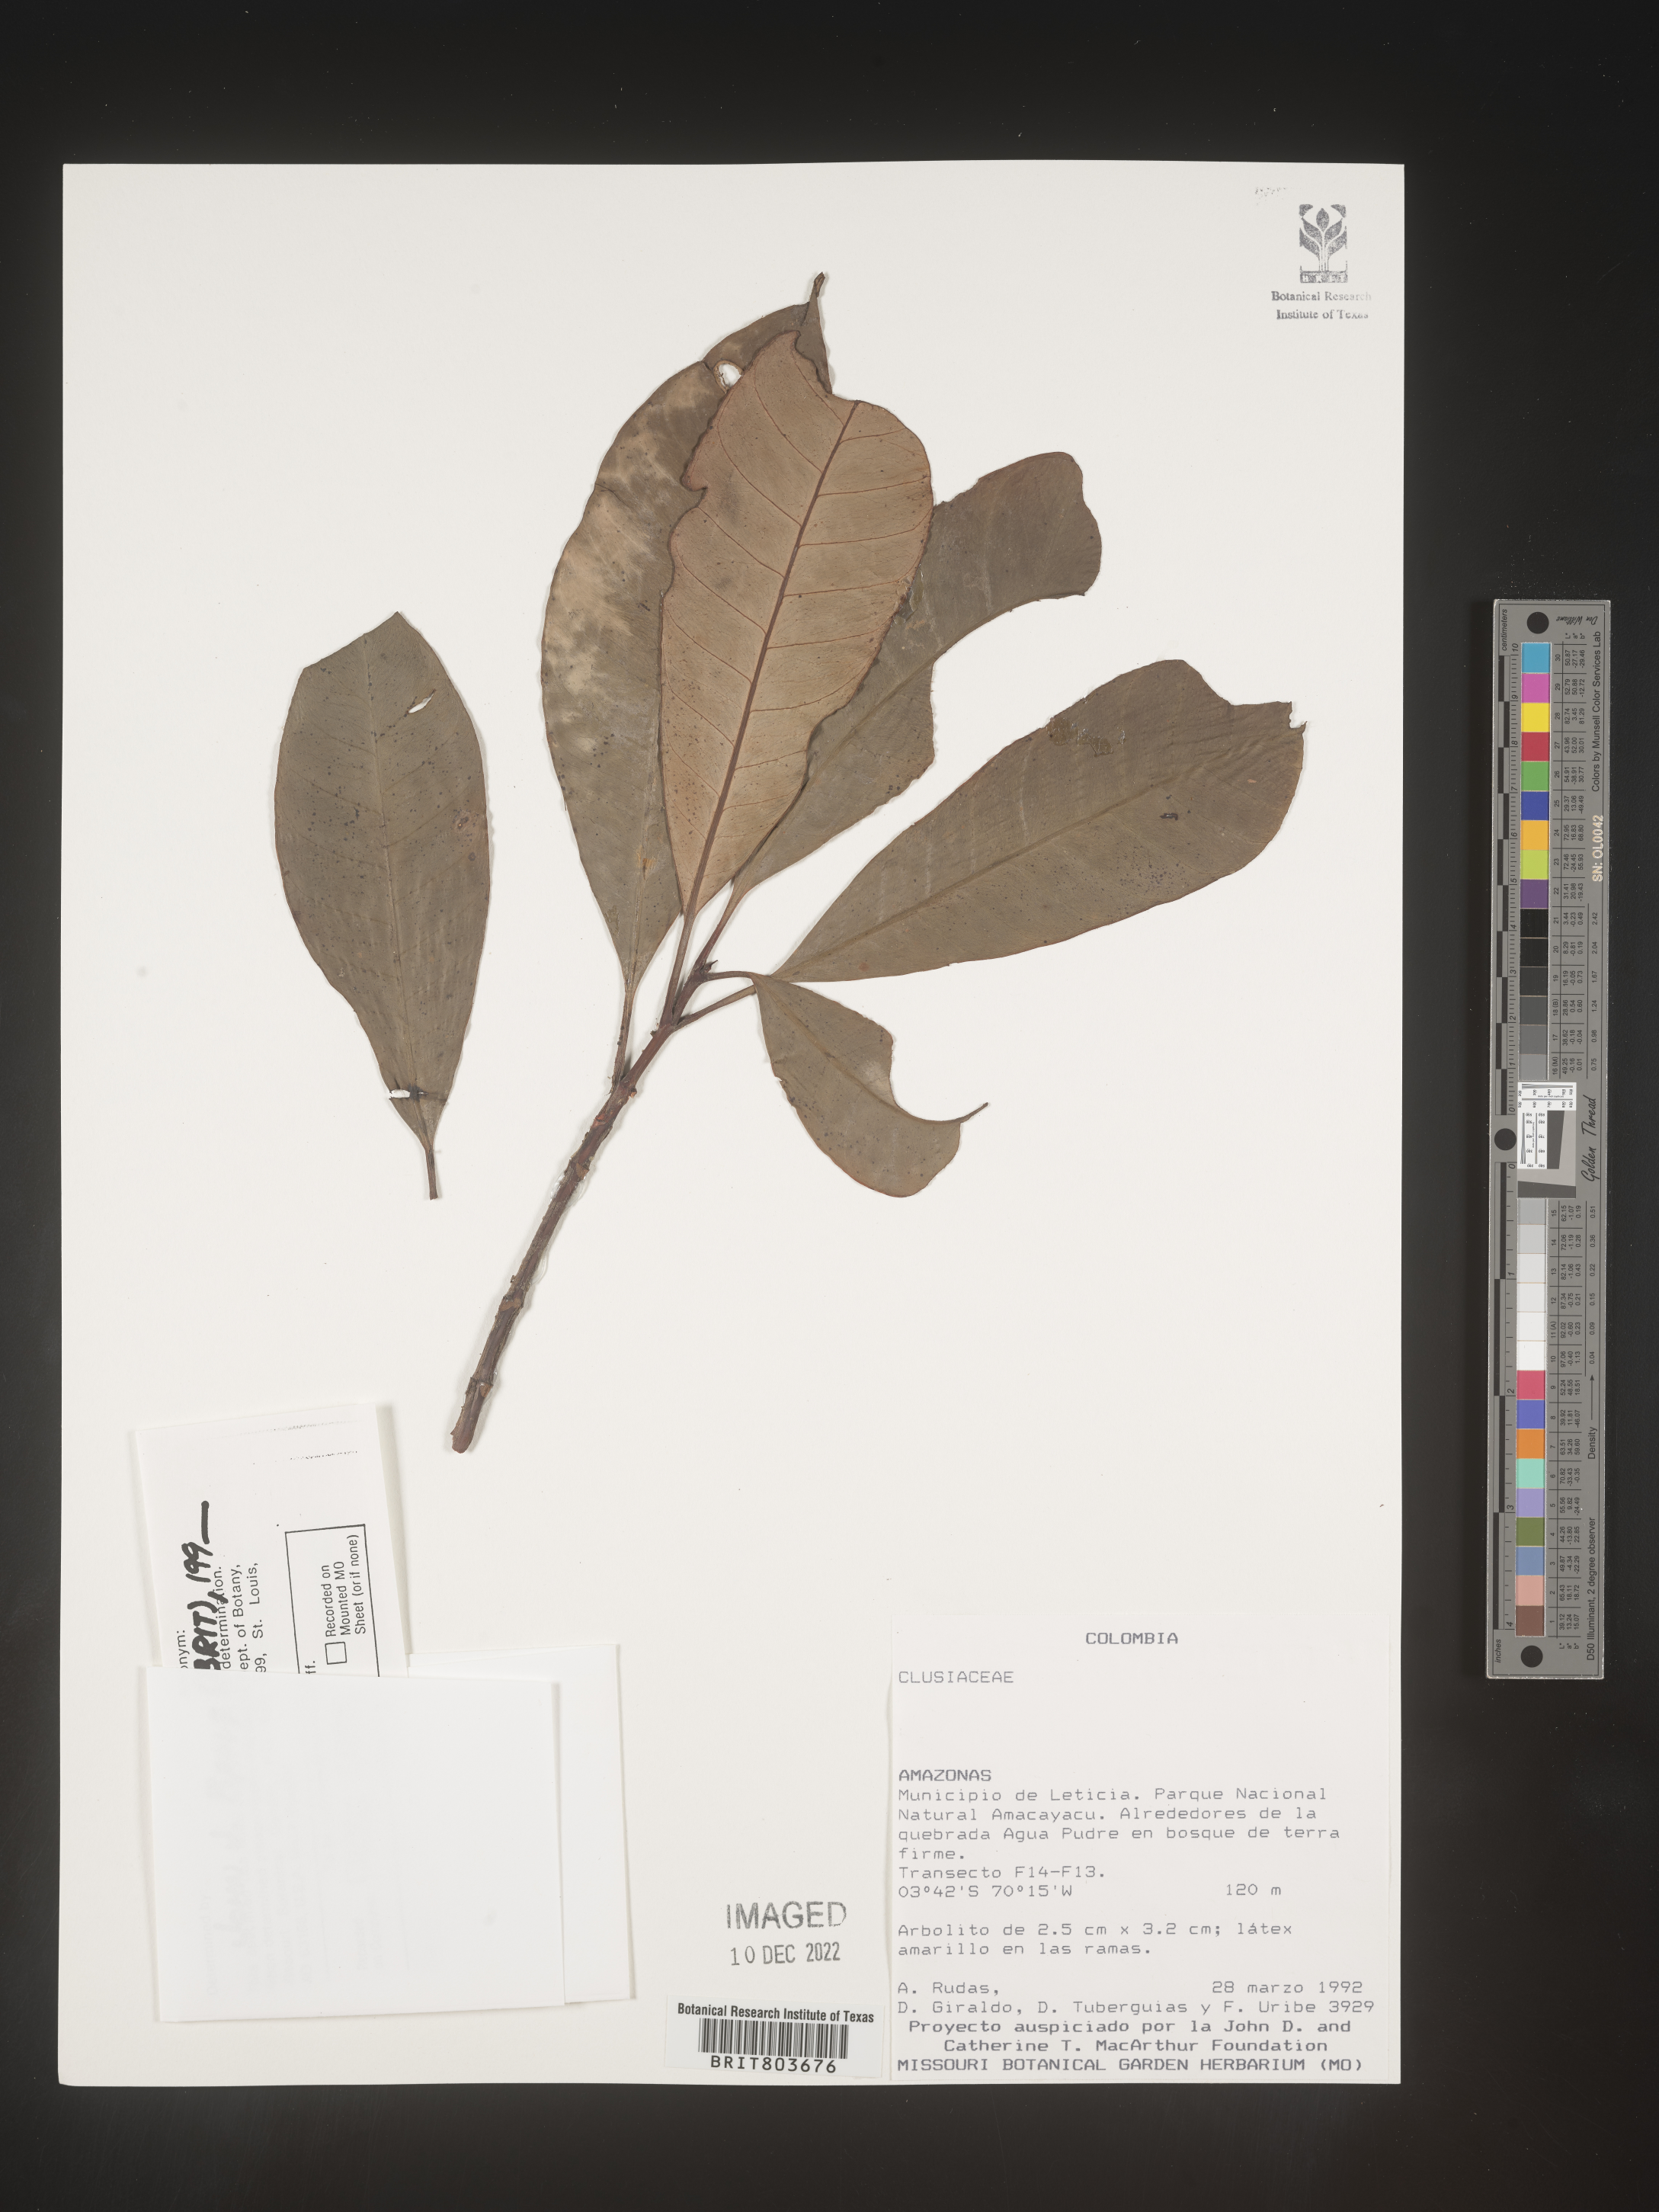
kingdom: Plantae
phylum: Tracheophyta
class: Magnoliopsida
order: Malpighiales
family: Clusiaceae
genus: Tovomita
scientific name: Tovomita
